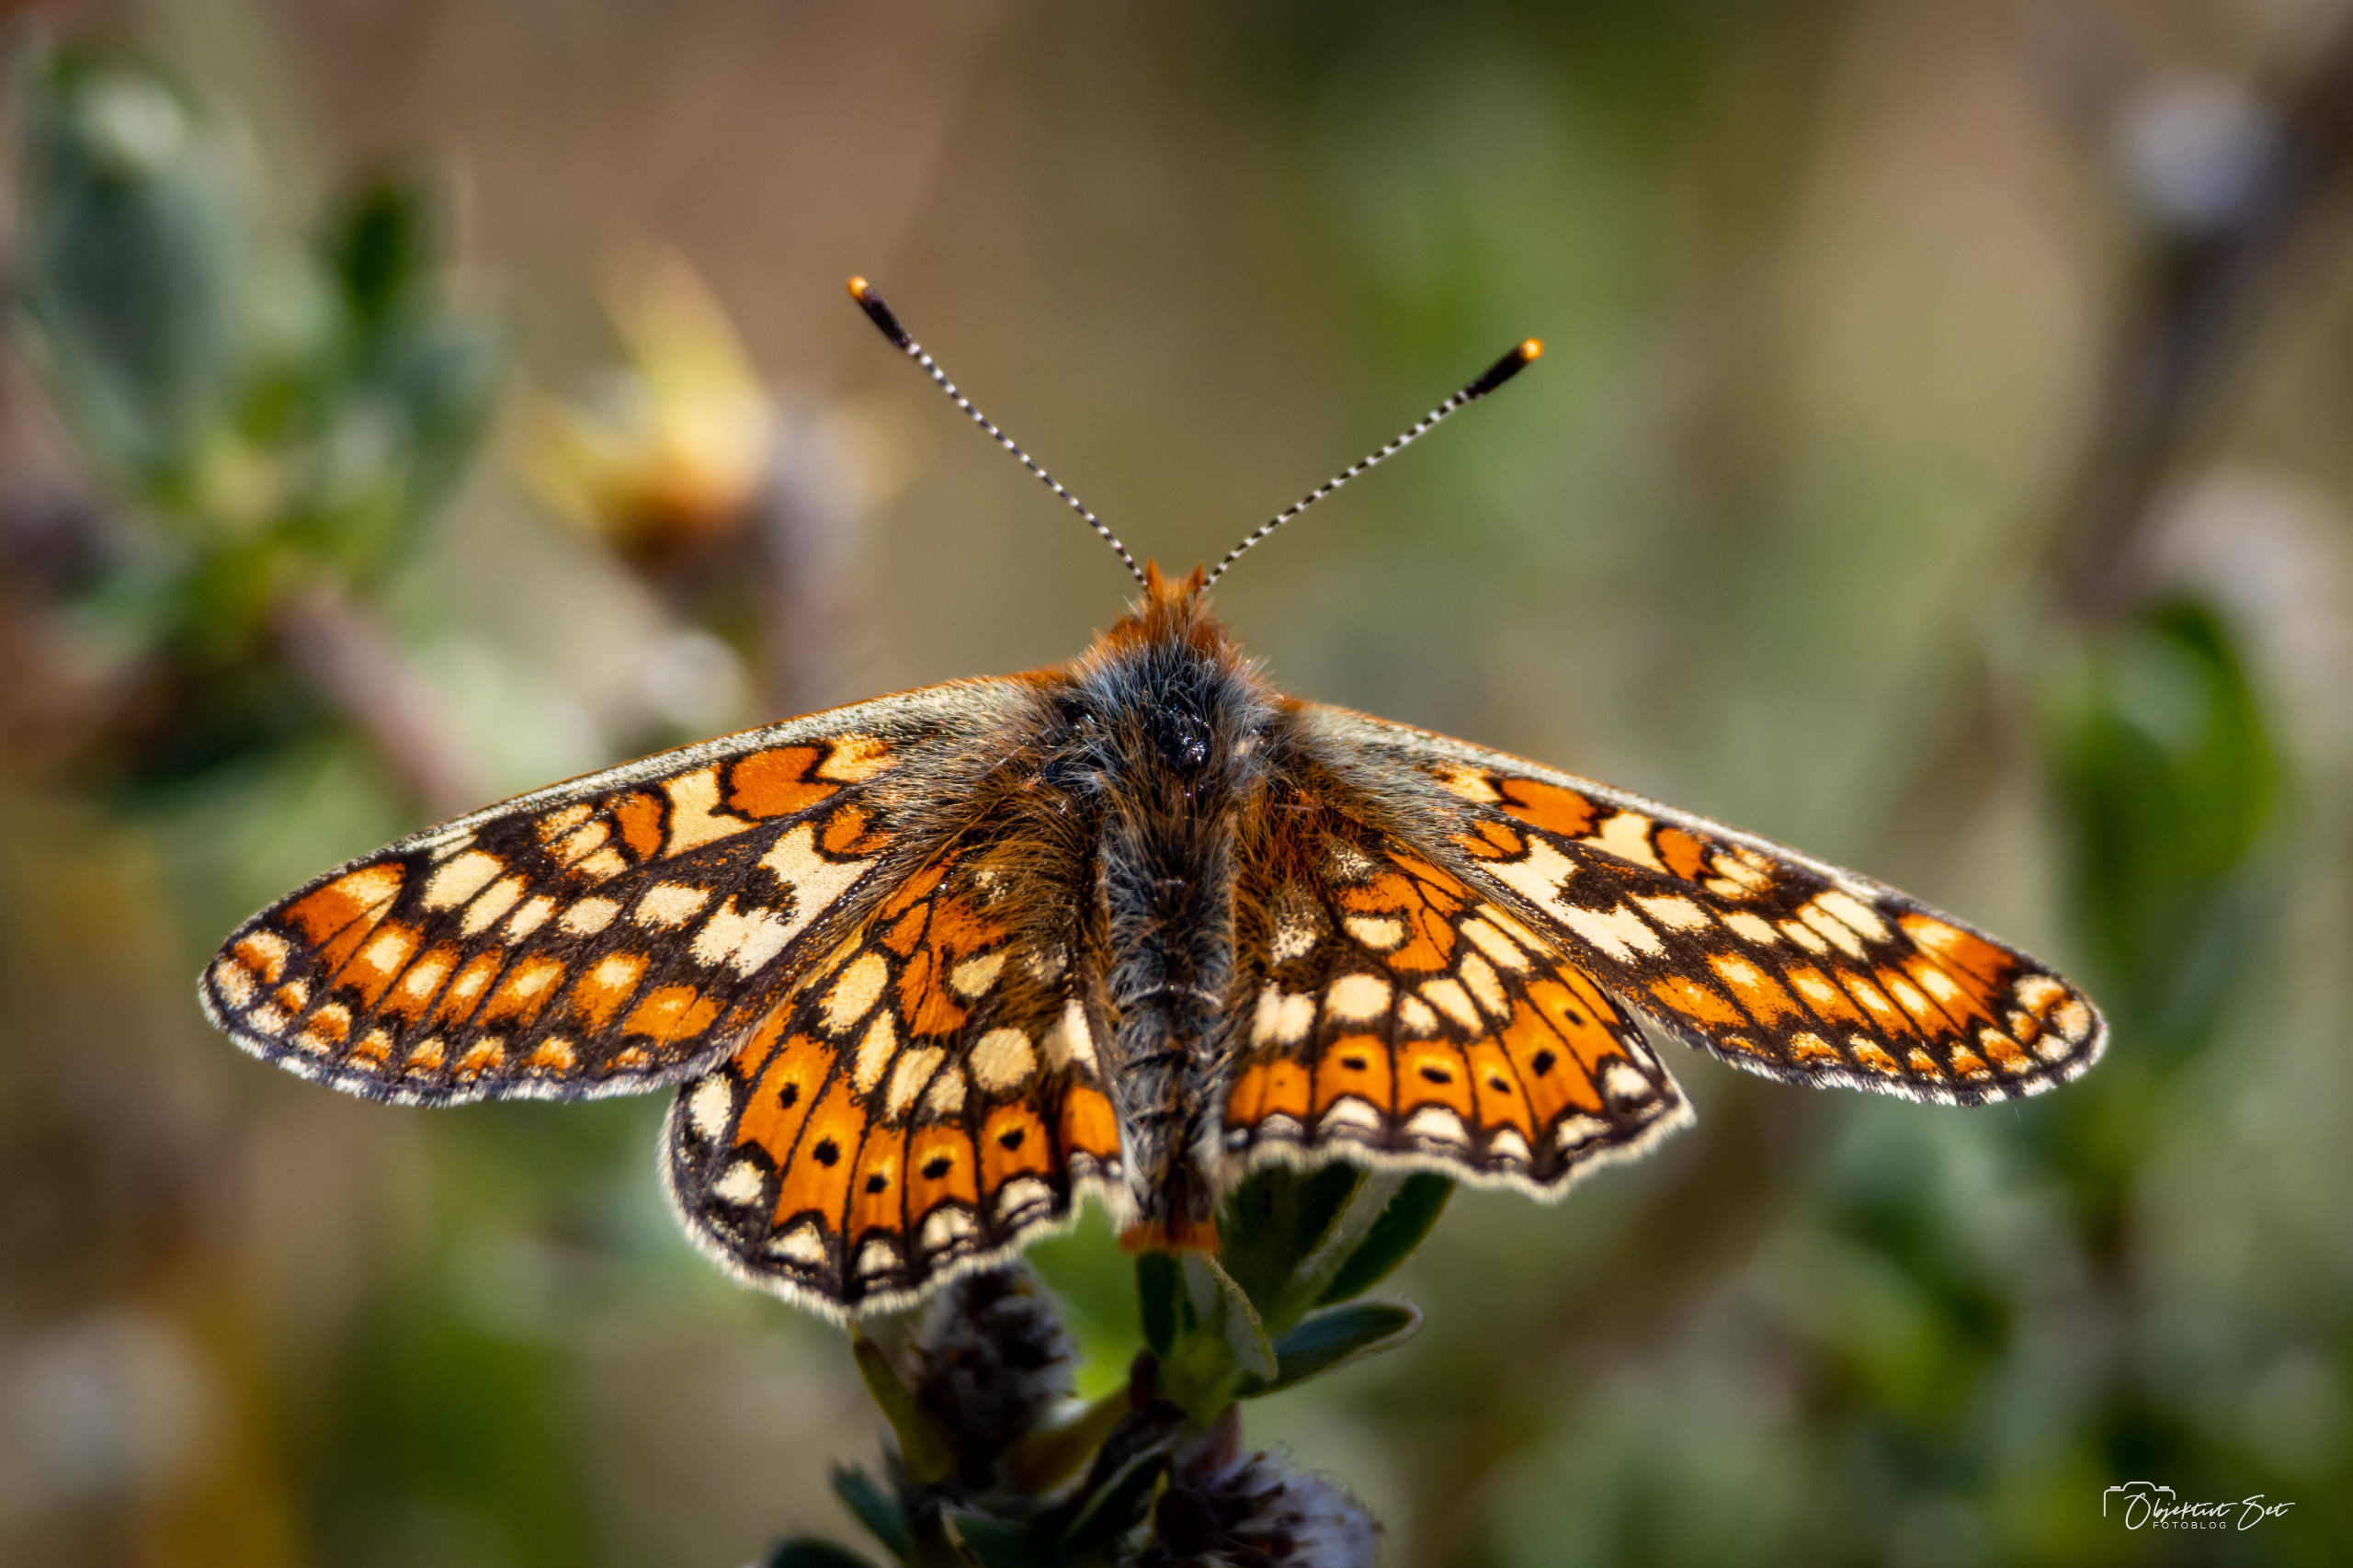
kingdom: Animalia
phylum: Arthropoda
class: Insecta
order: Lepidoptera
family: Nymphalidae
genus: Euphydryas
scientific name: Euphydryas aurinia
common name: Hedepletvinge
